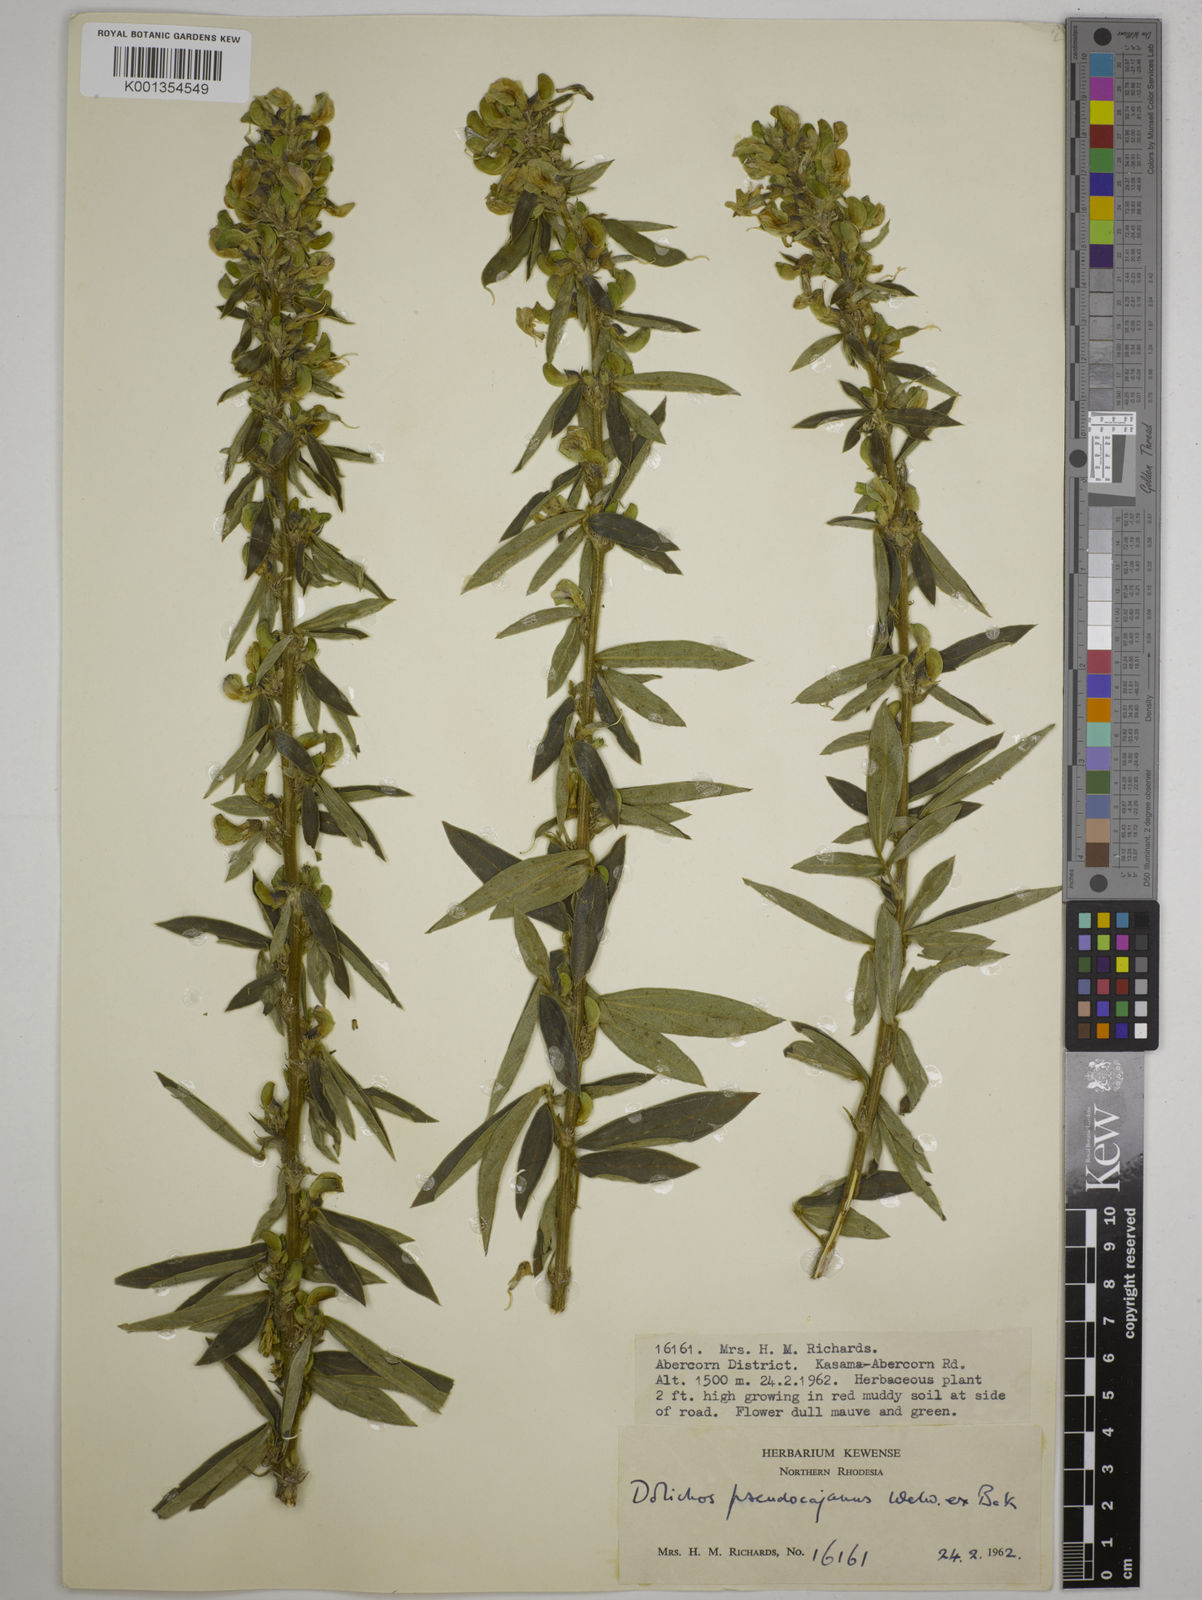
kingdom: Plantae
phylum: Tracheophyta
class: Magnoliopsida
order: Fabales
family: Fabaceae
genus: Dolichos
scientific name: Dolichos pseudocajanus
